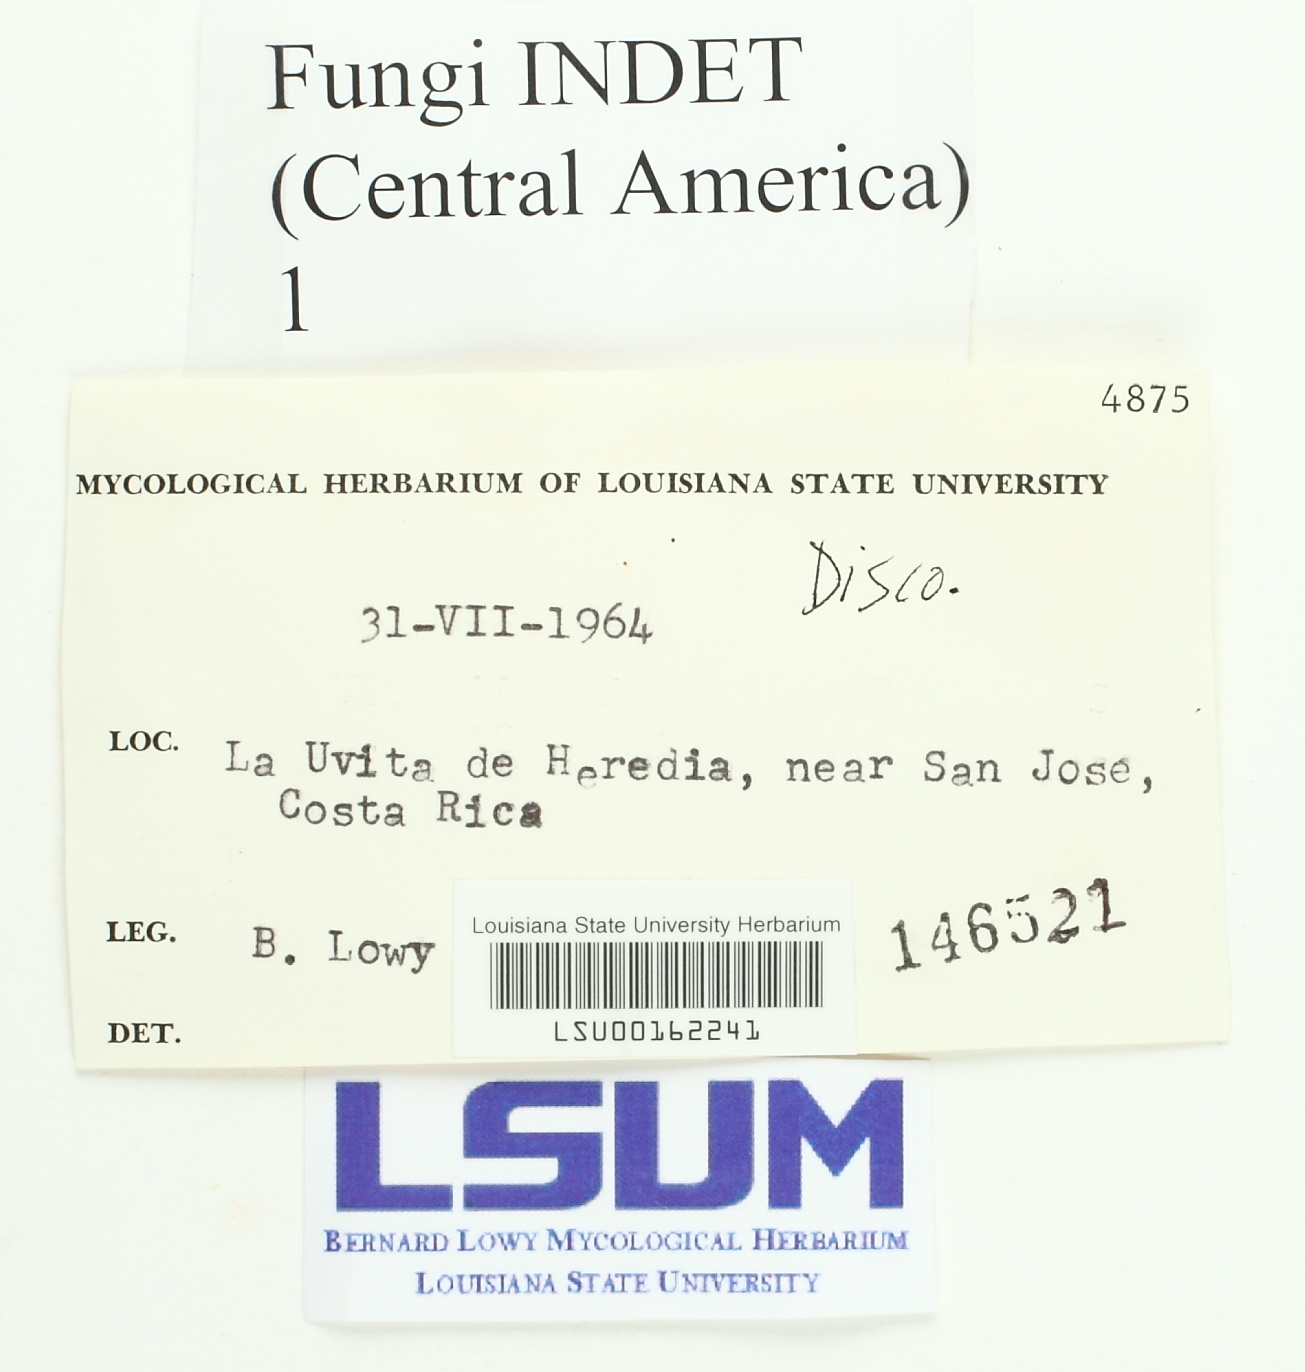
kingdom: Fungi
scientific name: Fungi
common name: Fungi
